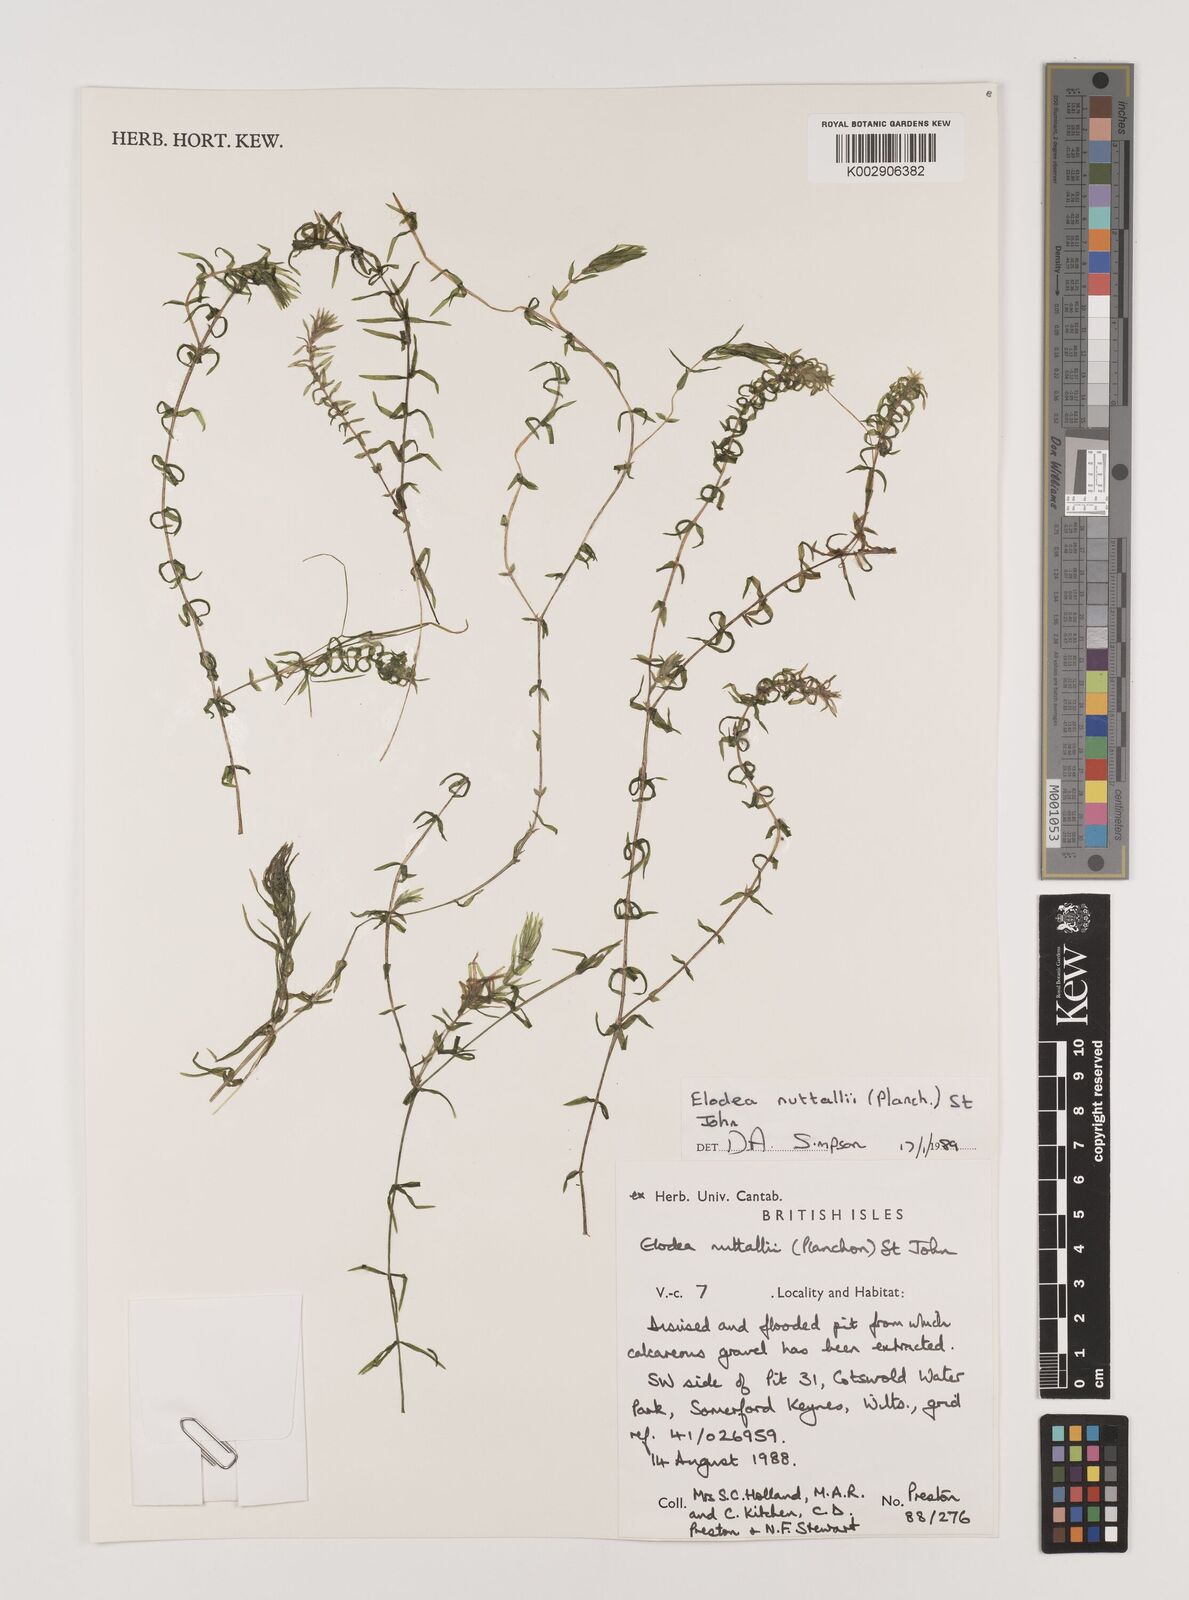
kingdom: Plantae
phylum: Tracheophyta
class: Liliopsida
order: Alismatales
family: Hydrocharitaceae
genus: Elodea
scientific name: Elodea nuttallii
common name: Nuttall's waterweed
